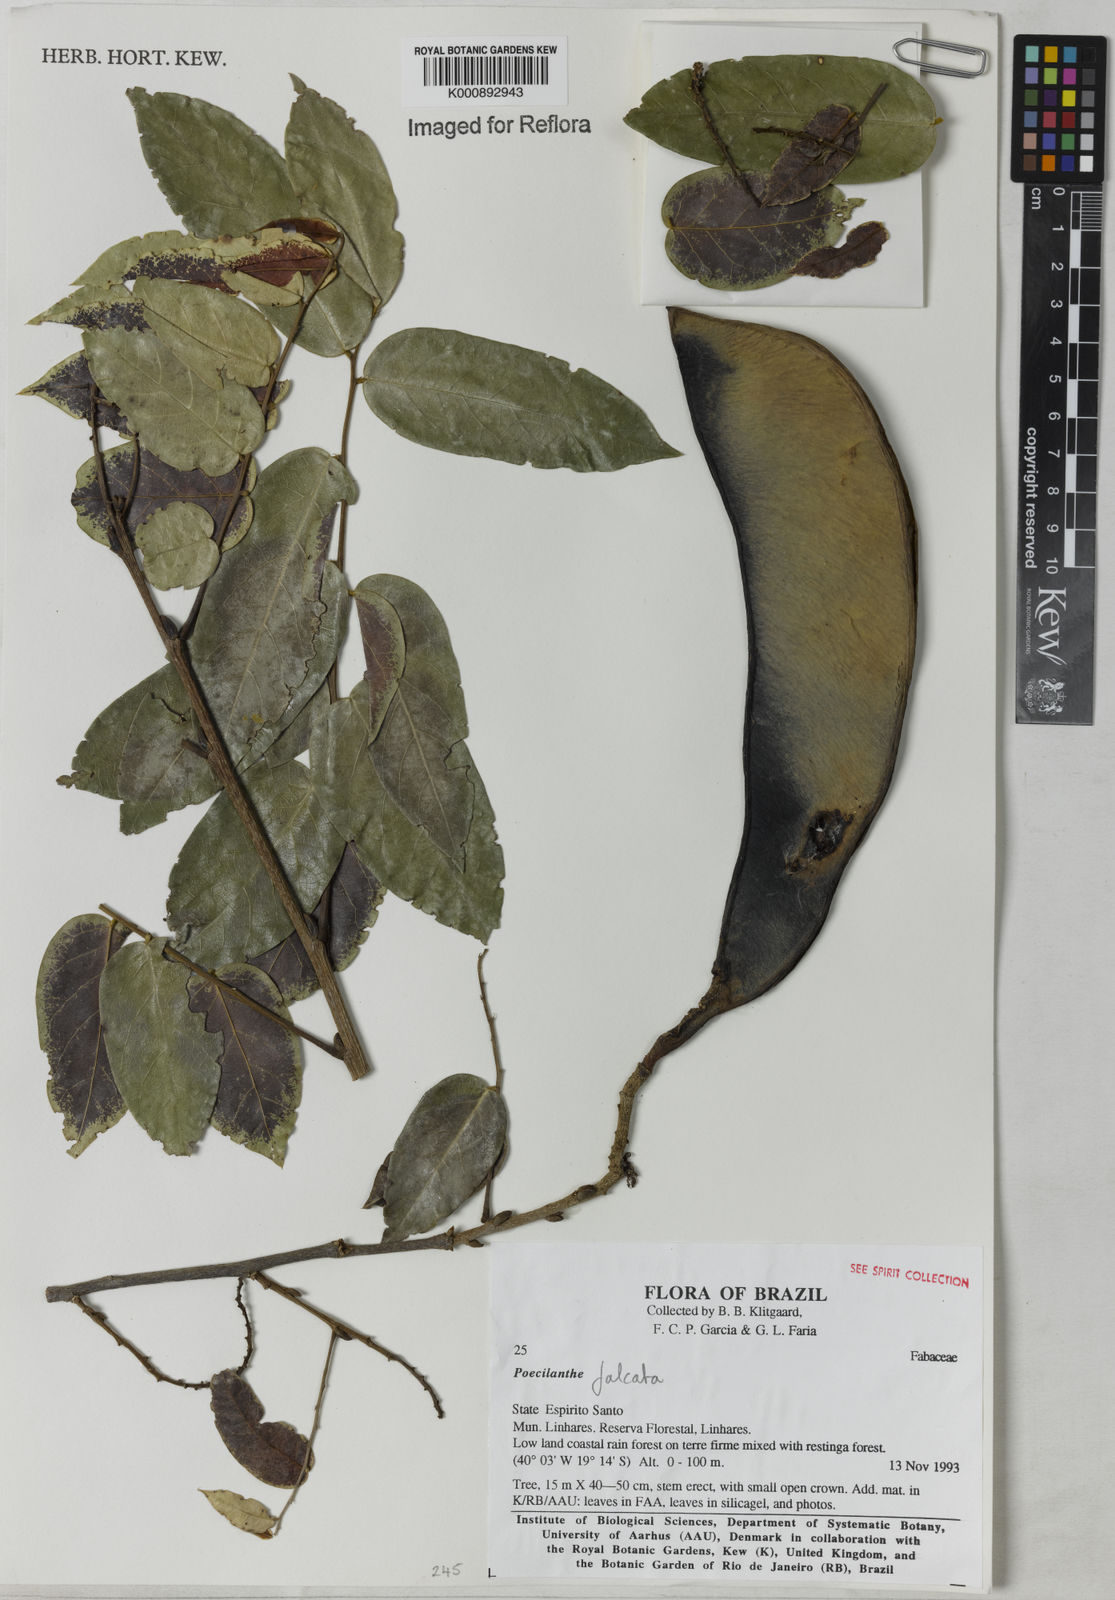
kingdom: Plantae
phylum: Tracheophyta
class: Magnoliopsida
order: Fabales
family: Fabaceae
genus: Poecilanthe
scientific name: Poecilanthe falcata
